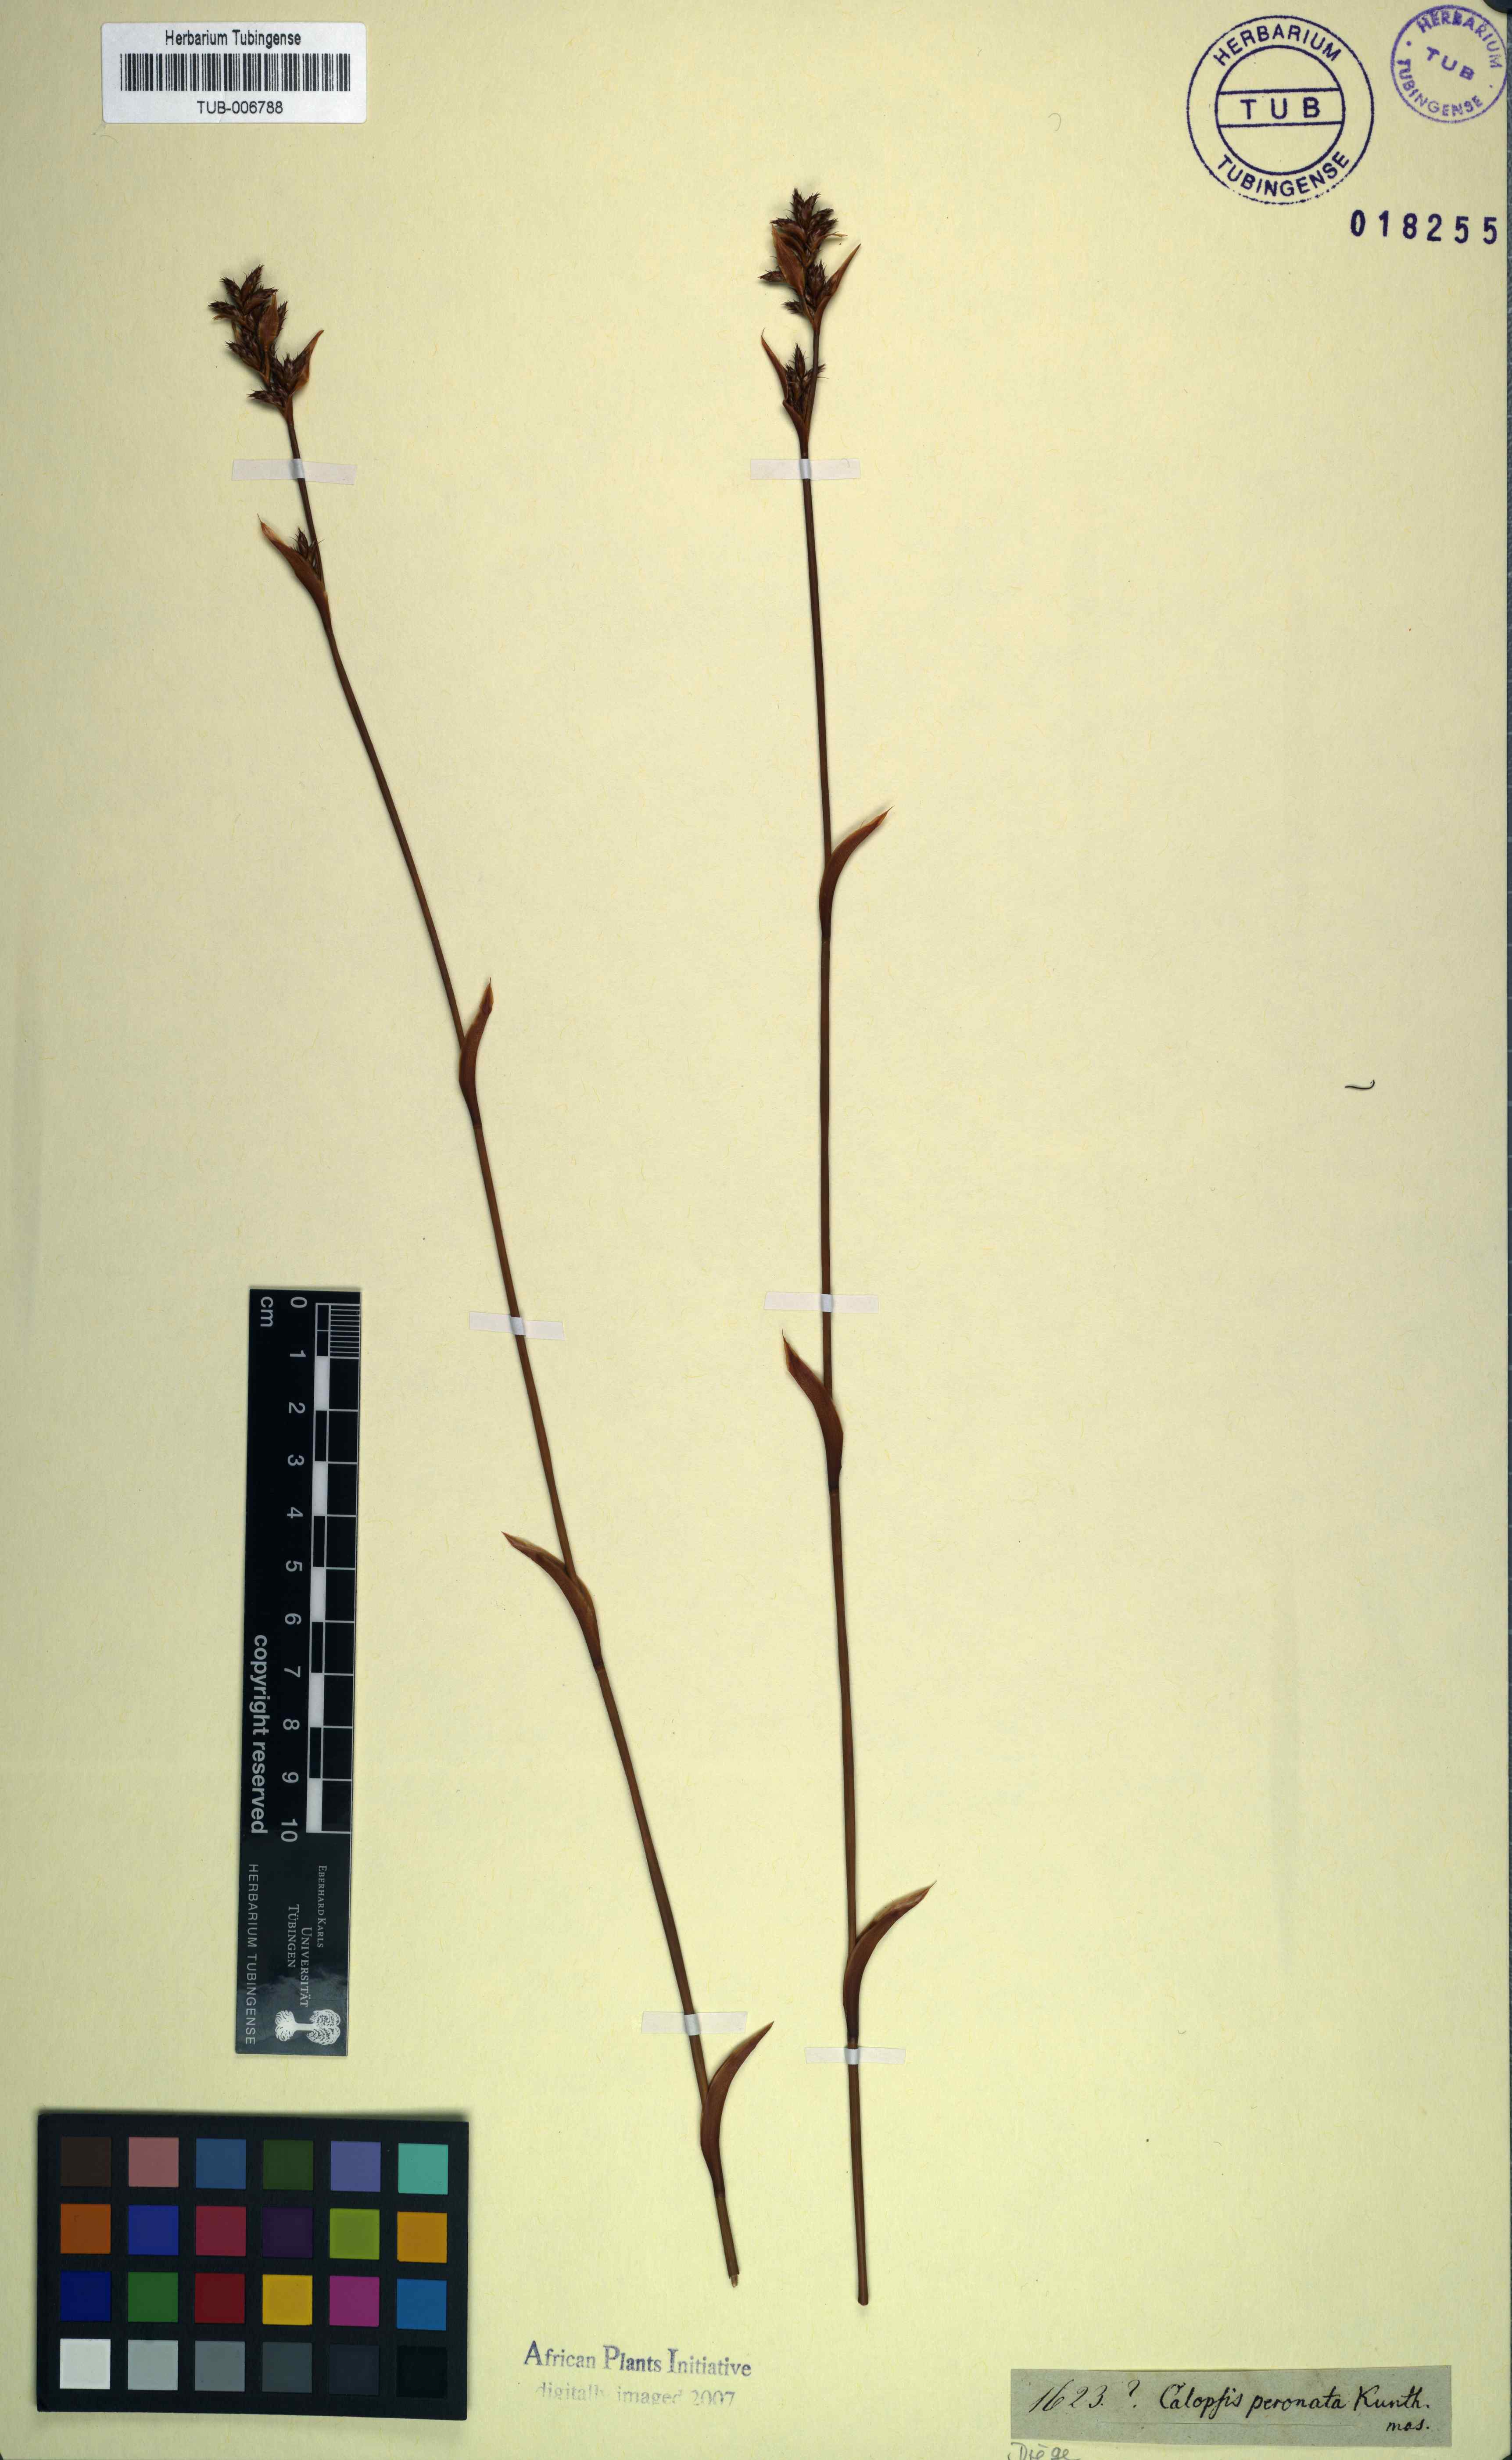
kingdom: Plantae
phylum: Tracheophyta
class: Liliopsida
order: Poales
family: Restionaceae
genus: Restio
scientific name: Restio vimineus
